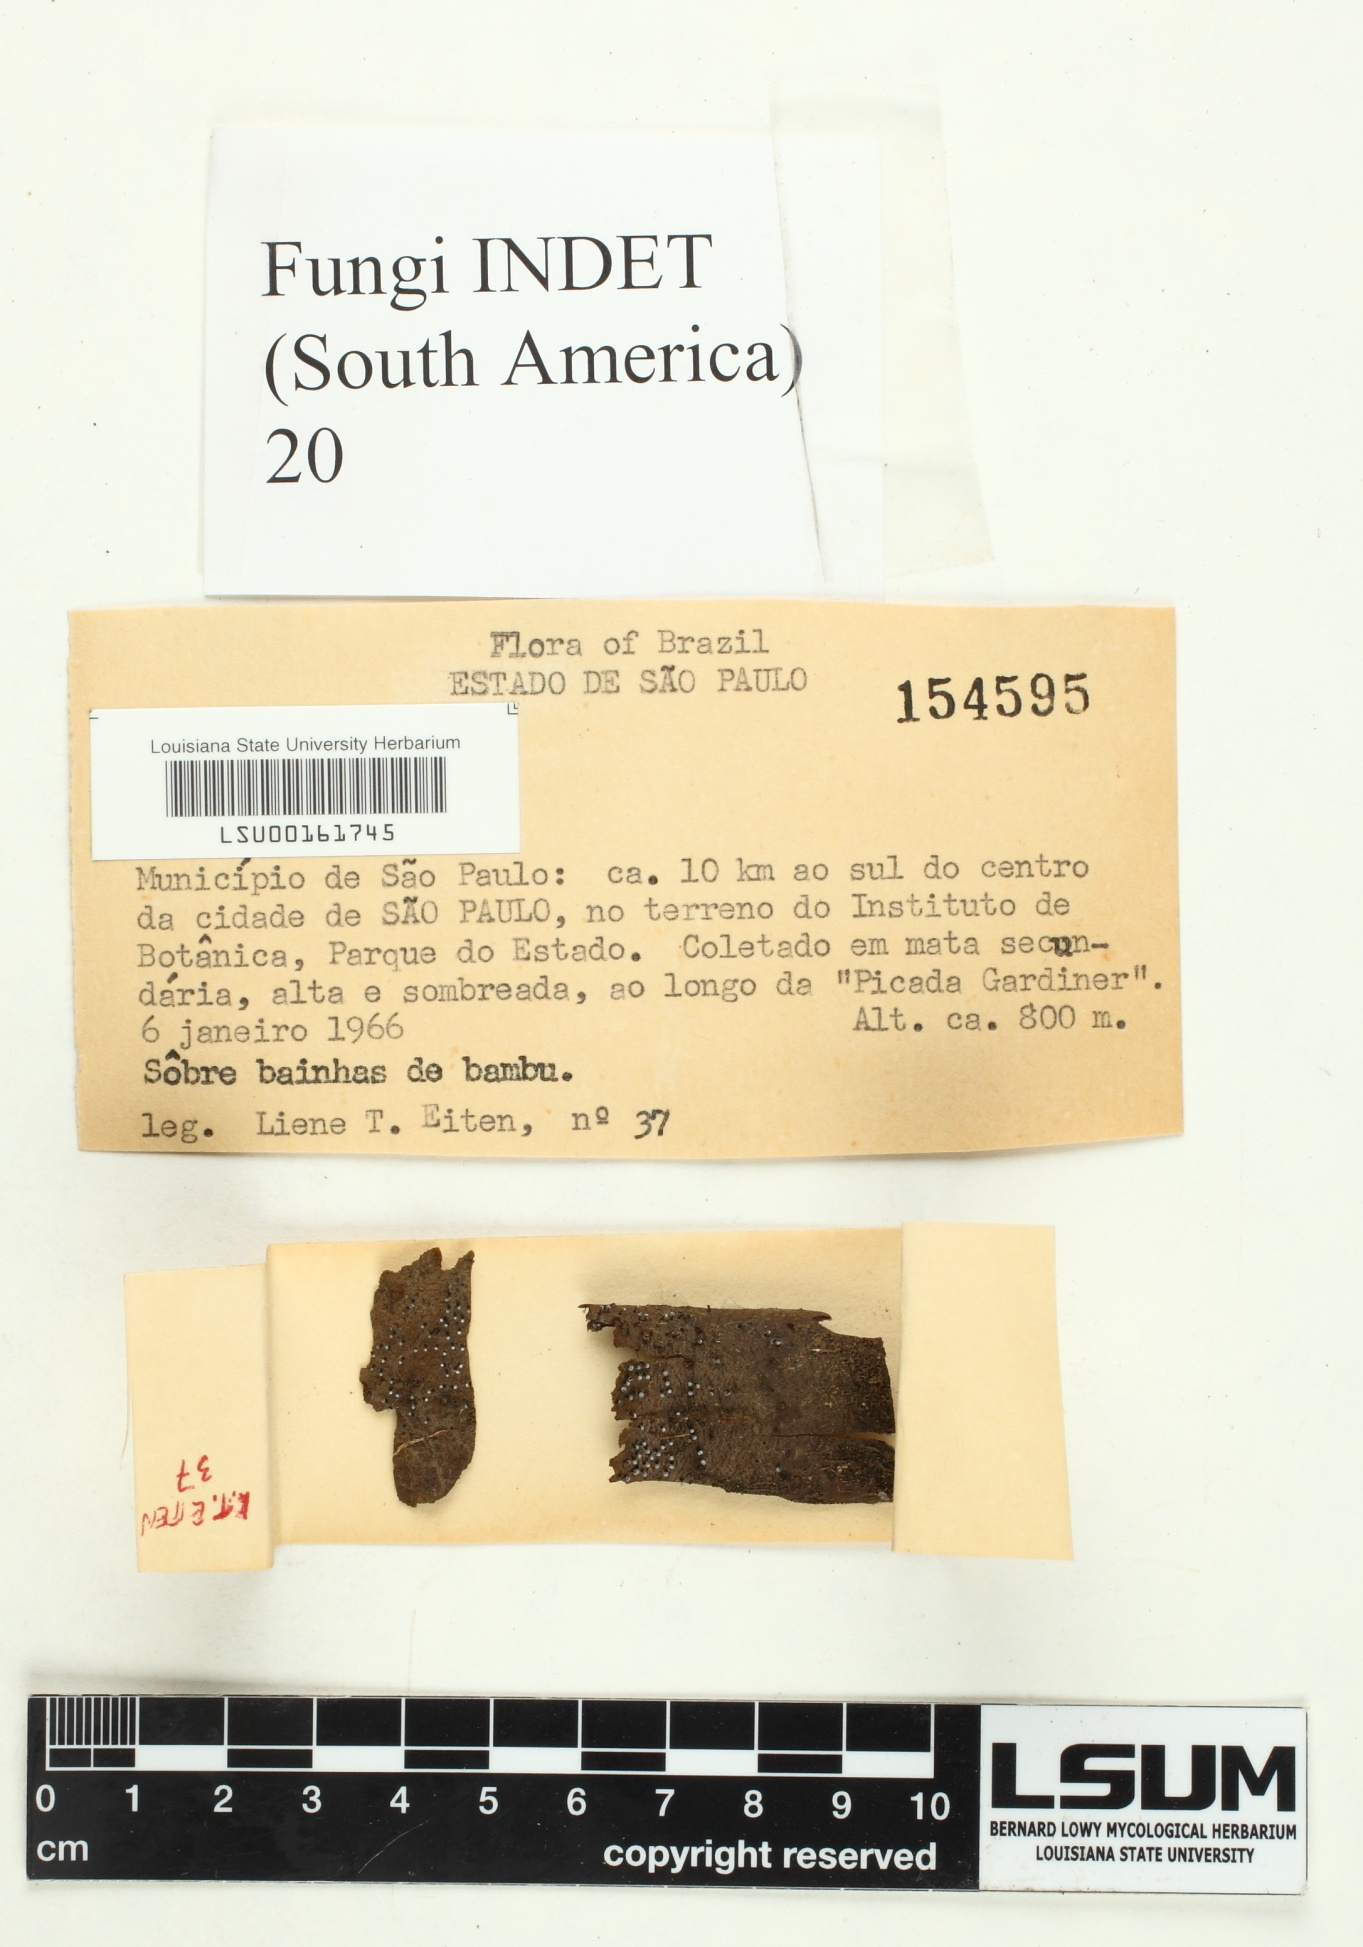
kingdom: Fungi
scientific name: Fungi
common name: Fungi
